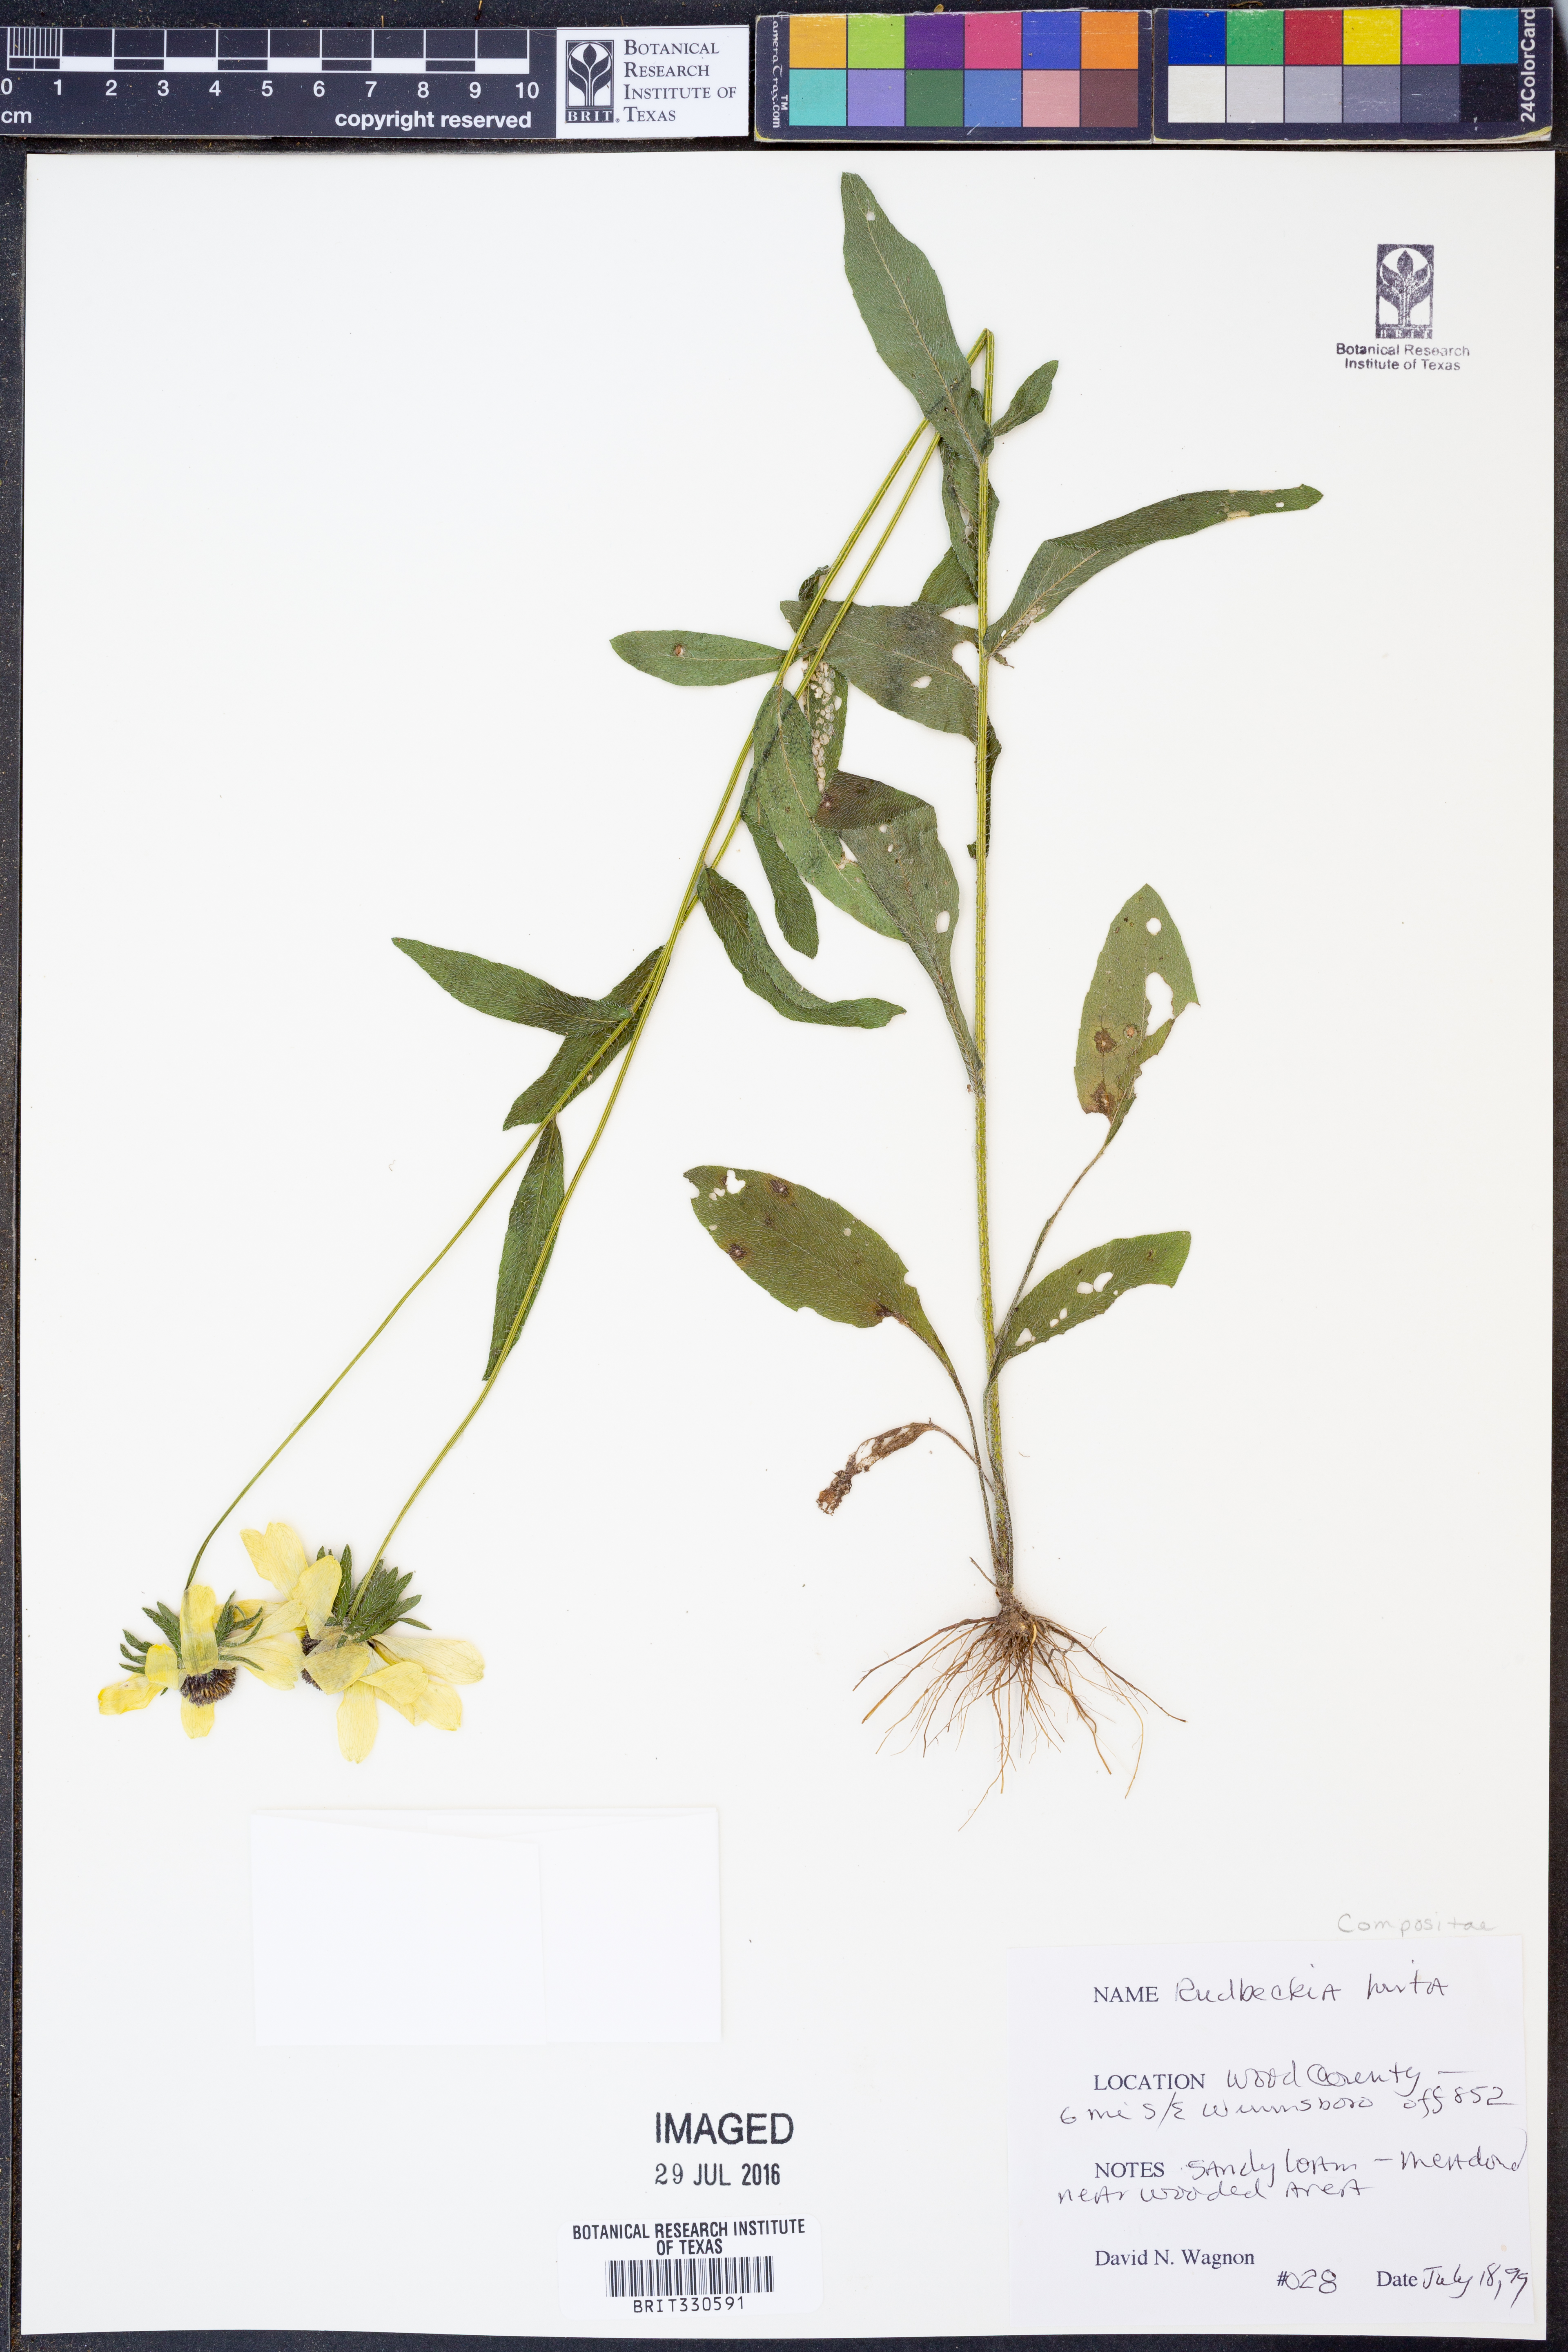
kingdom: Plantae
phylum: Tracheophyta
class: Magnoliopsida
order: Asterales
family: Asteraceae
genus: Rudbeckia
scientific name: Rudbeckia hirta
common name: Black-eyed-susan
